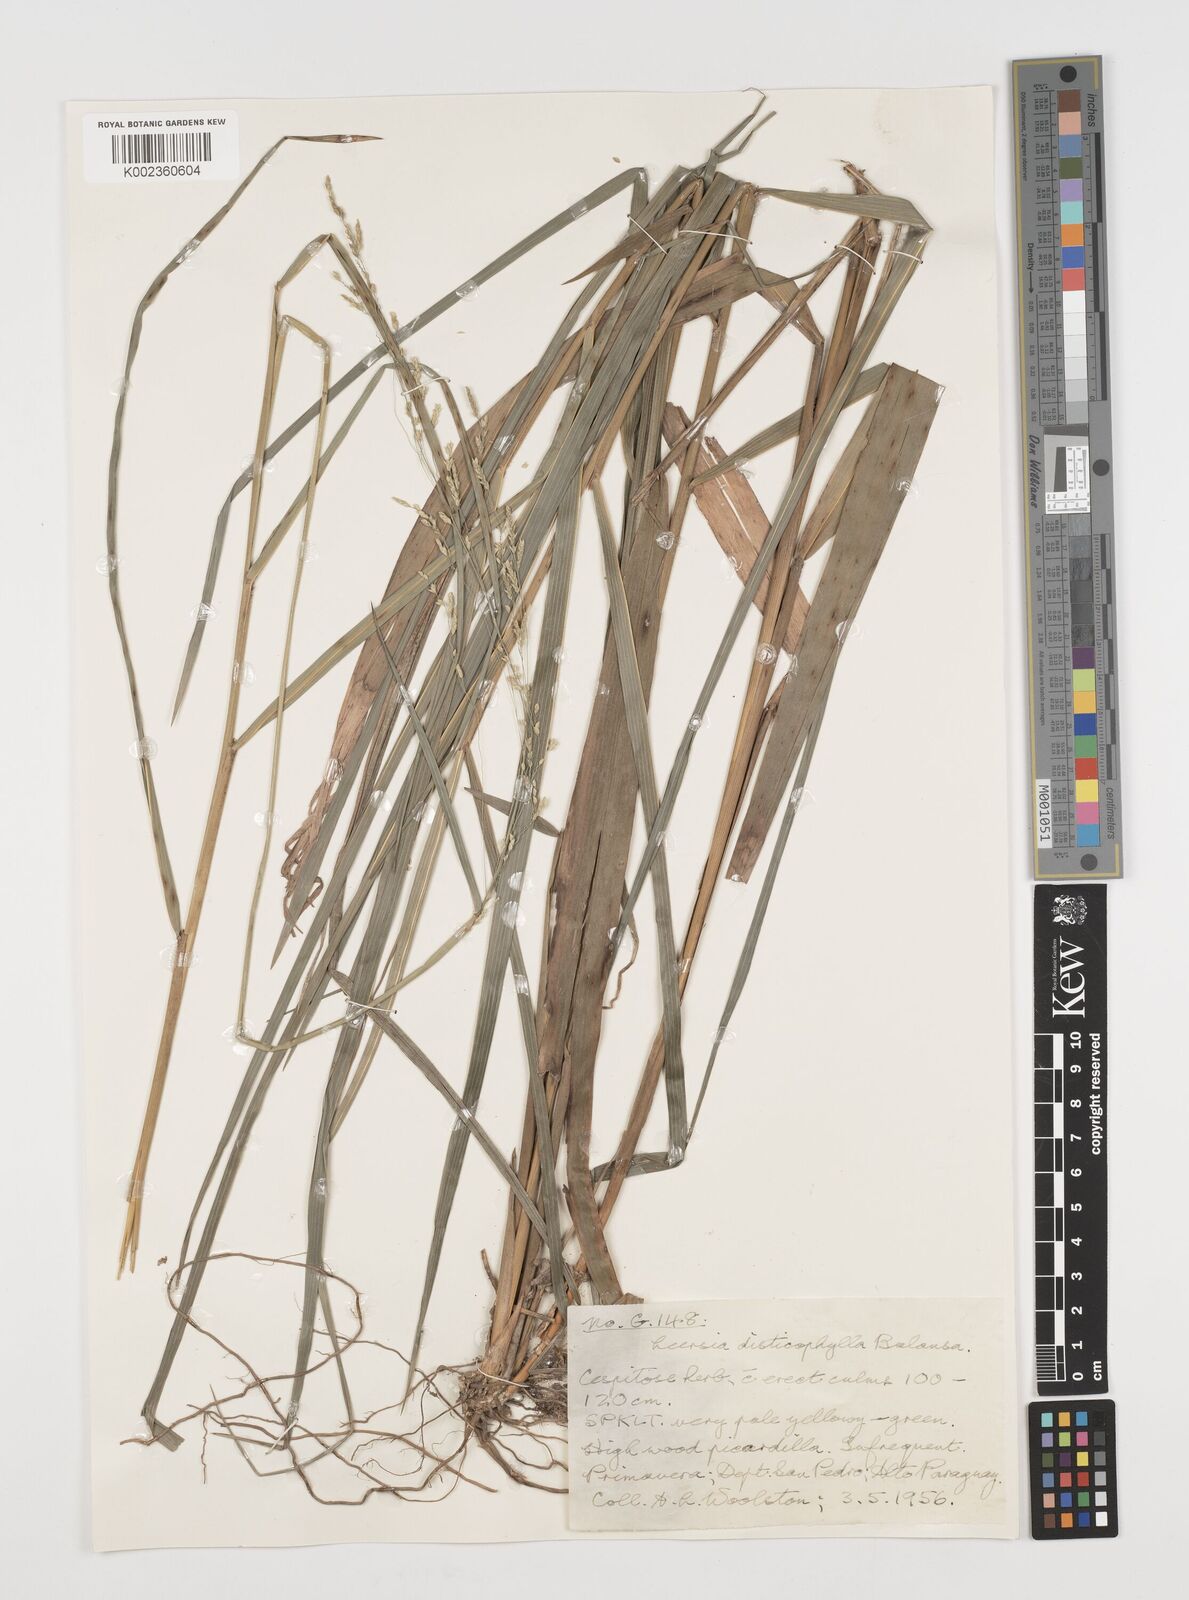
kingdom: Plantae
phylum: Tracheophyta
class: Liliopsida
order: Poales
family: Poaceae
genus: Leersia
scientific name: Leersia ligularis
